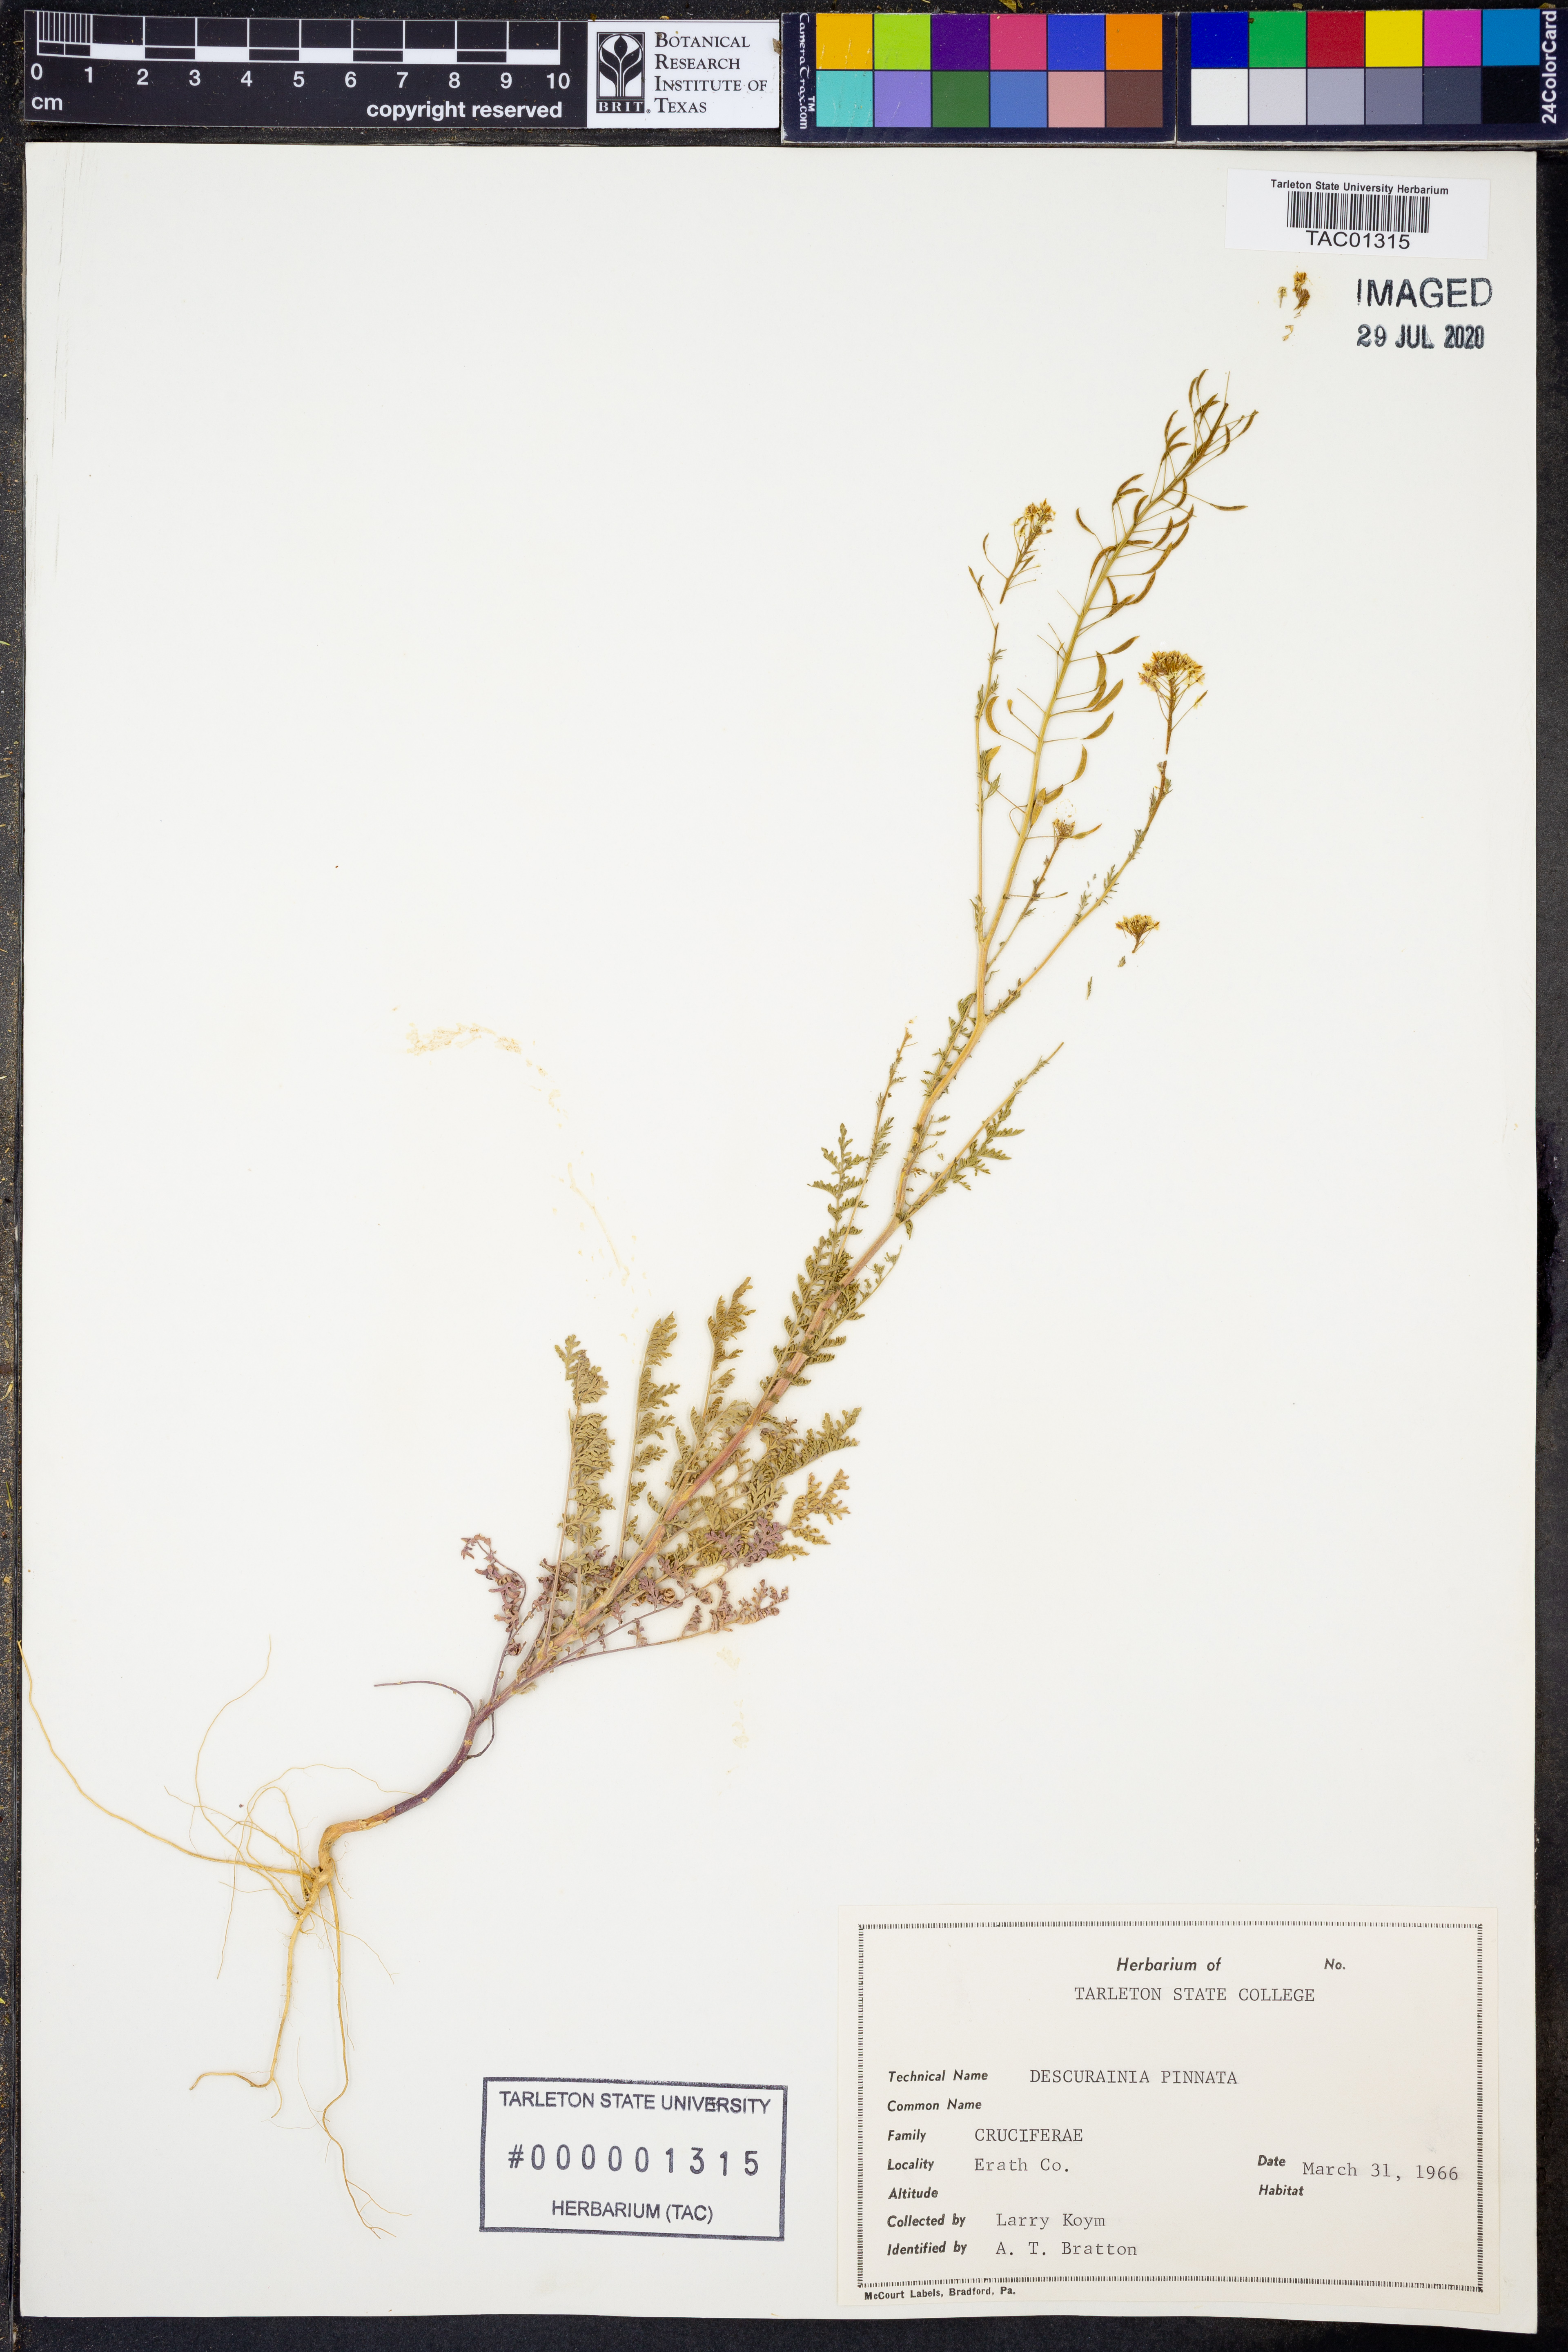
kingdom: Plantae
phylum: Tracheophyta
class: Magnoliopsida
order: Brassicales
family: Brassicaceae
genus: Descurainia
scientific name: Descurainia pinnata
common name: Western tansy mustard
